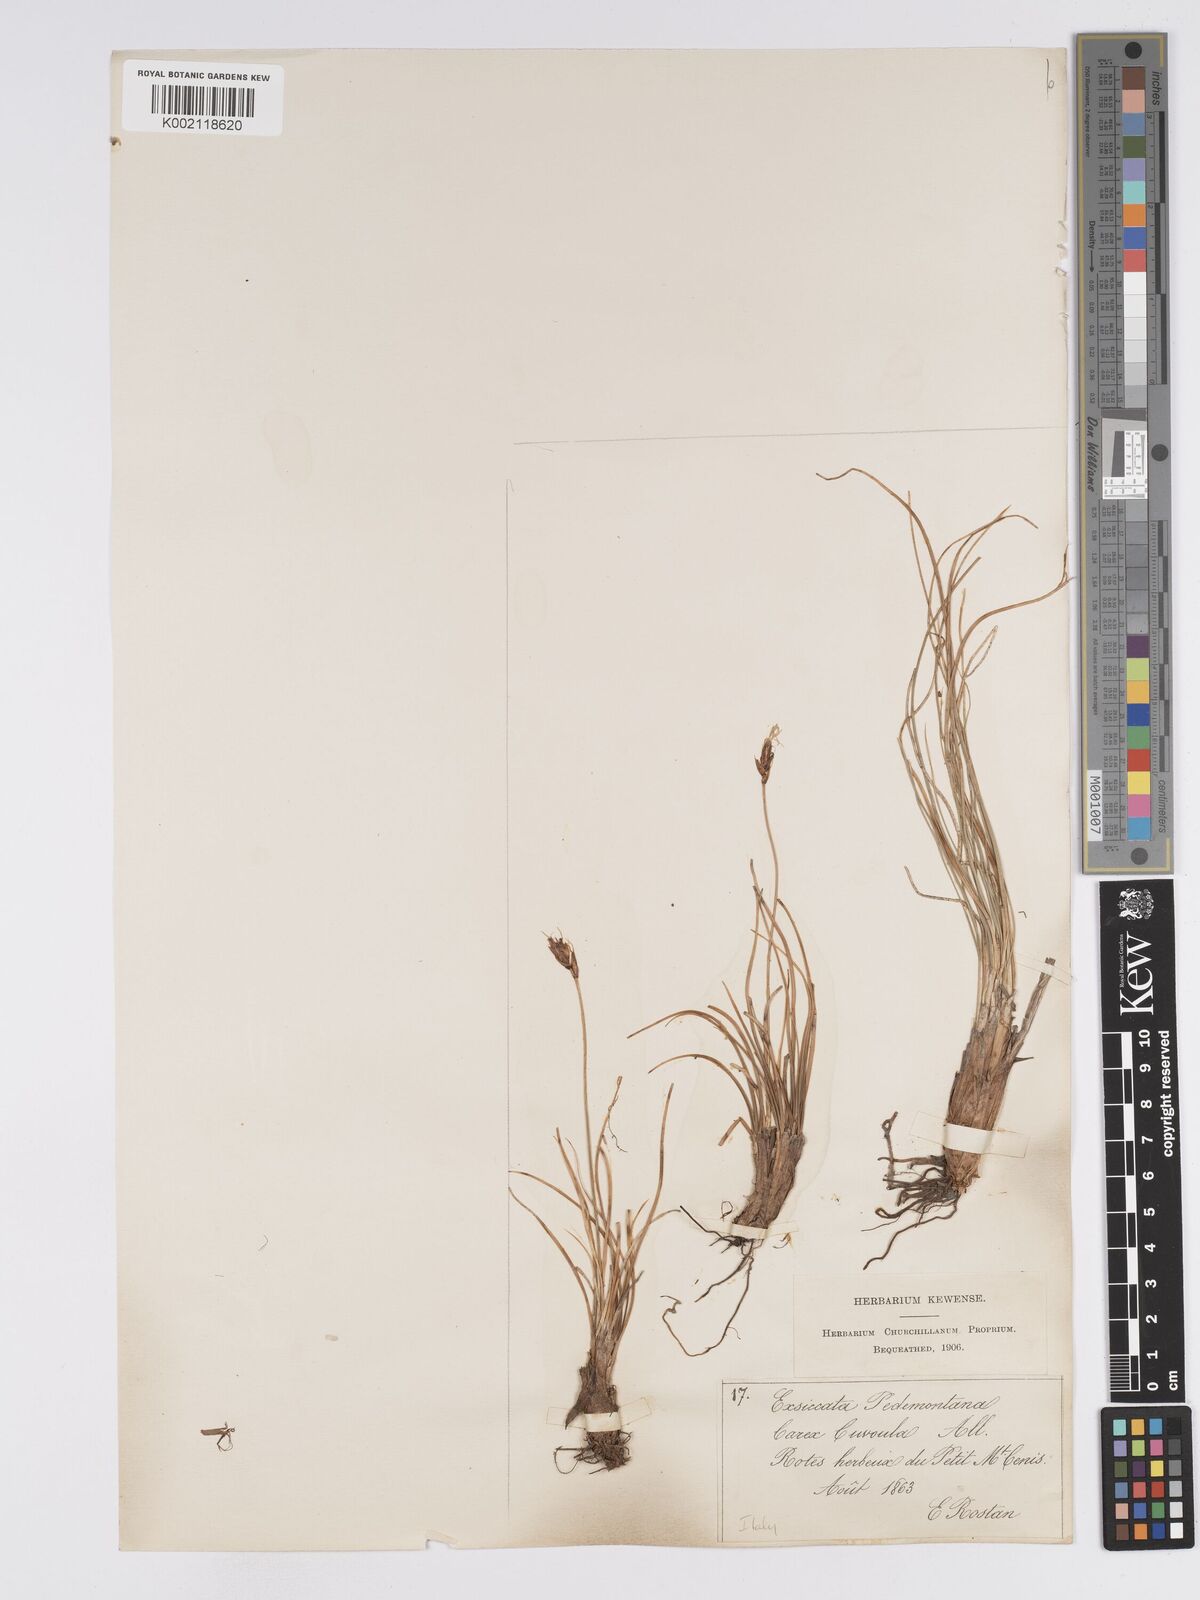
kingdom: Plantae
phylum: Tracheophyta
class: Liliopsida
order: Poales
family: Cyperaceae
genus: Carex
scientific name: Carex curvula
